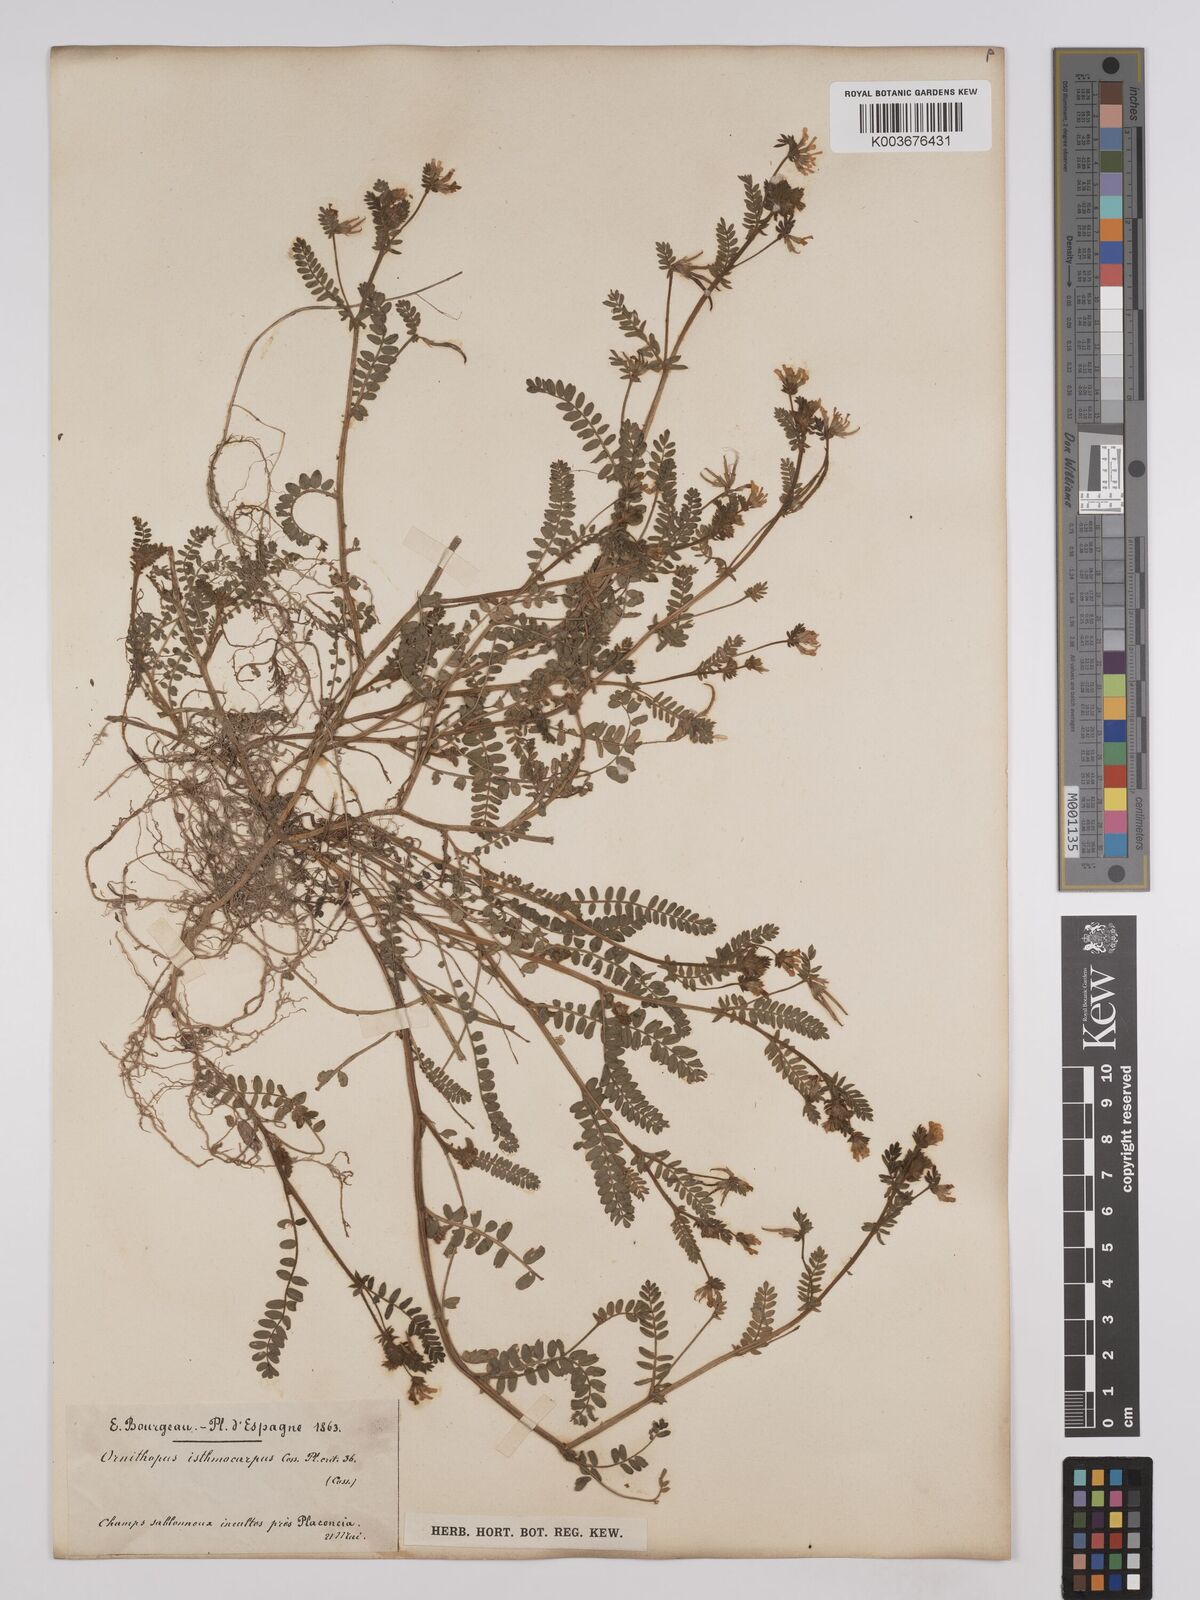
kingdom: Plantae
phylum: Tracheophyta
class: Magnoliopsida
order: Fabales
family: Fabaceae
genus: Ornithopus
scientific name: Ornithopus sativus
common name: Serradella
